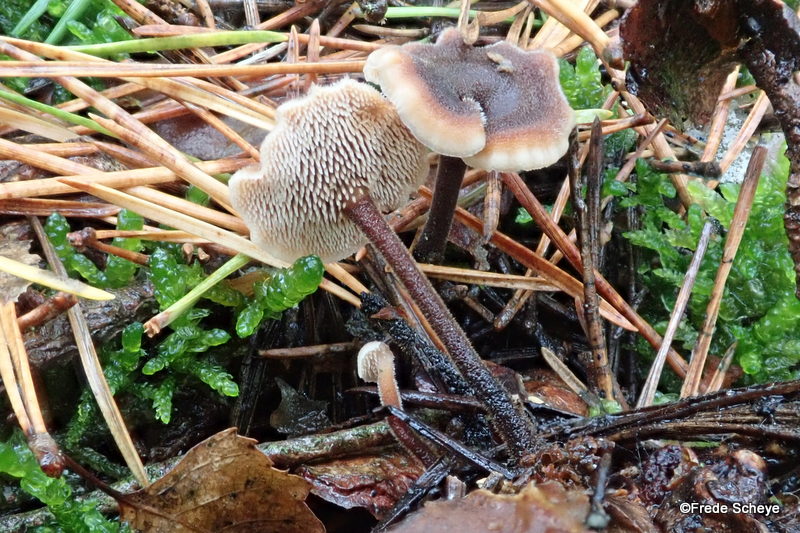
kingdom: Fungi
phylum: Basidiomycota
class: Agaricomycetes
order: Russulales
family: Auriscalpiaceae
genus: Auriscalpium
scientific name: Auriscalpium vulgare
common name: koglepigsvamp
